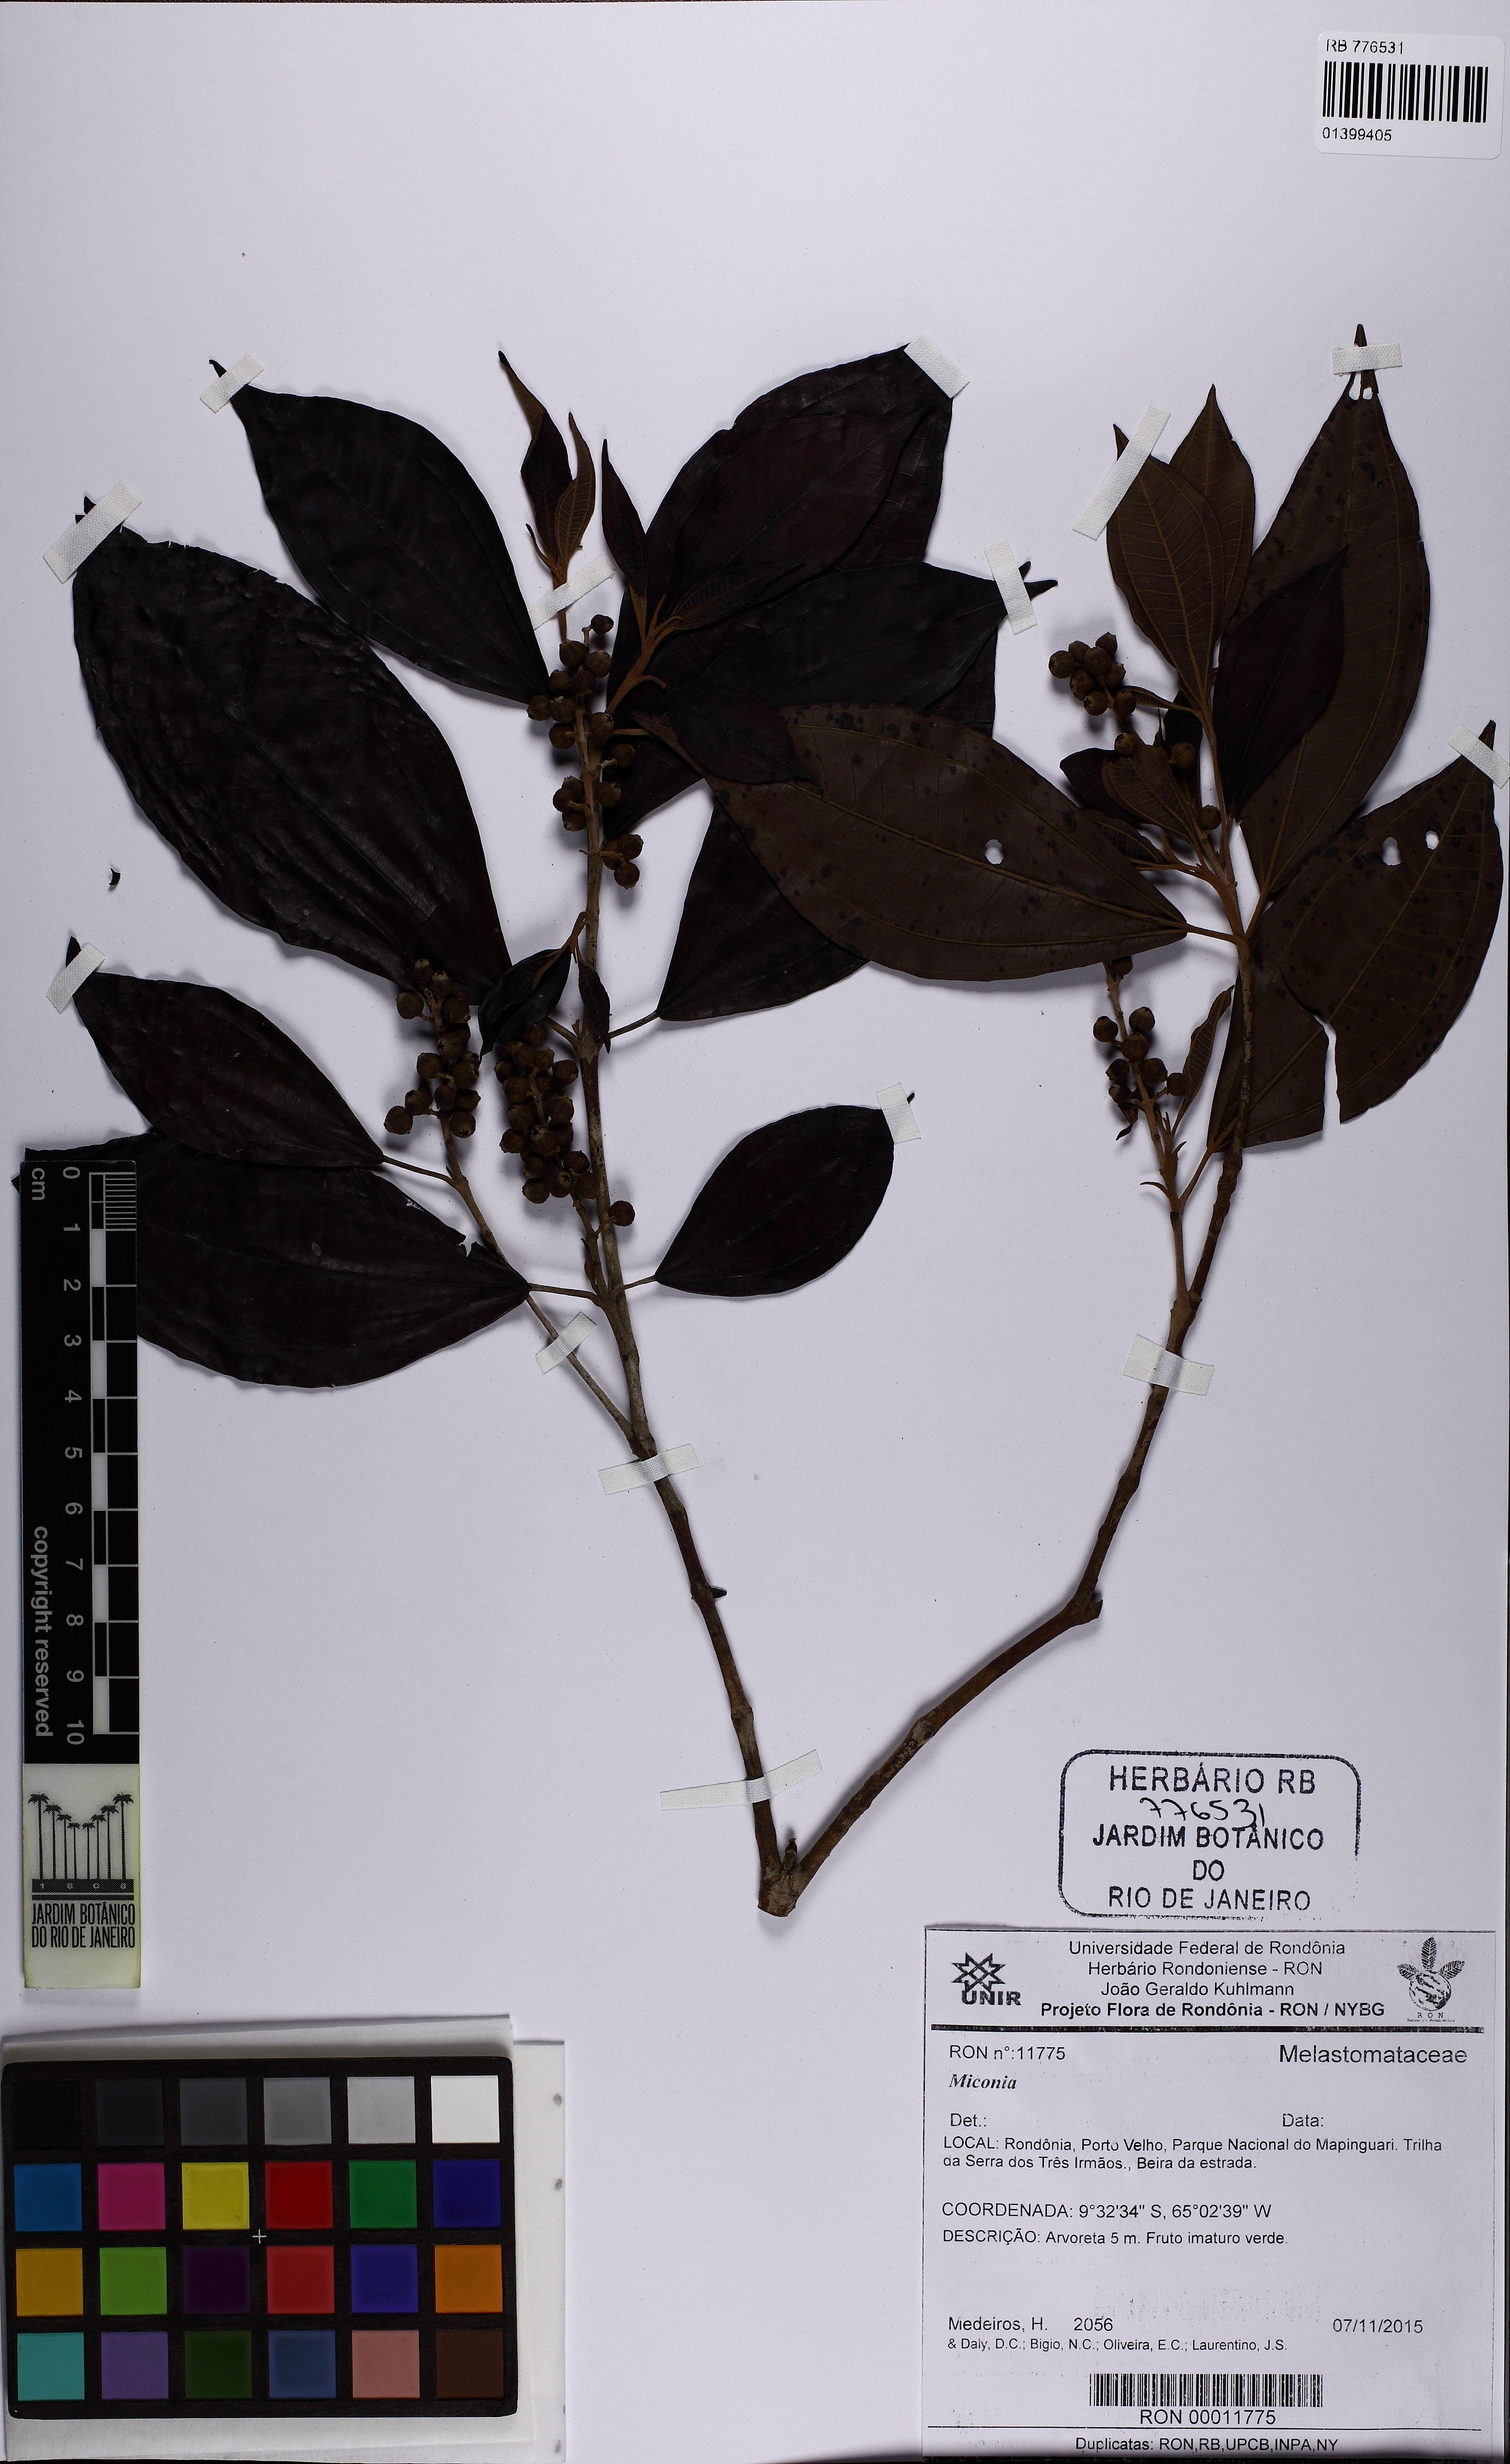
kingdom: Plantae
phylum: Tracheophyta
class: Magnoliopsida
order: Myrtales
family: Melastomataceae
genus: Miconia
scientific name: Miconia
